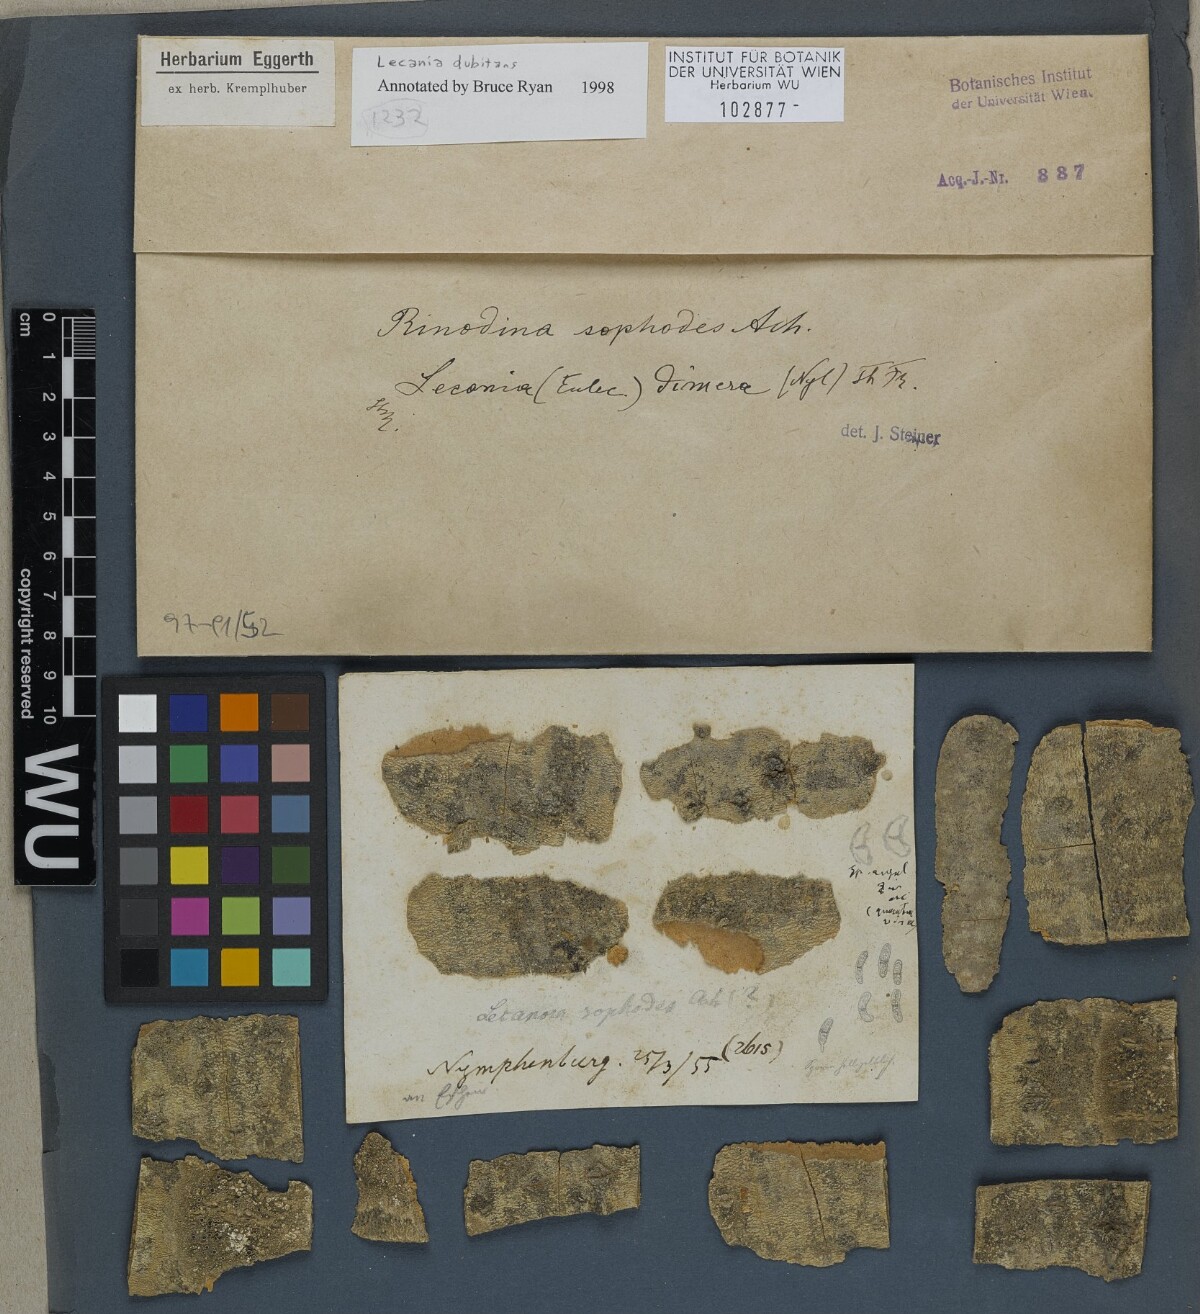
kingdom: Fungi
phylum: Ascomycota
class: Lecanoromycetes
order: Lecanorales
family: Ramalinaceae
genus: Lecania
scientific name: Lecania dubitans
